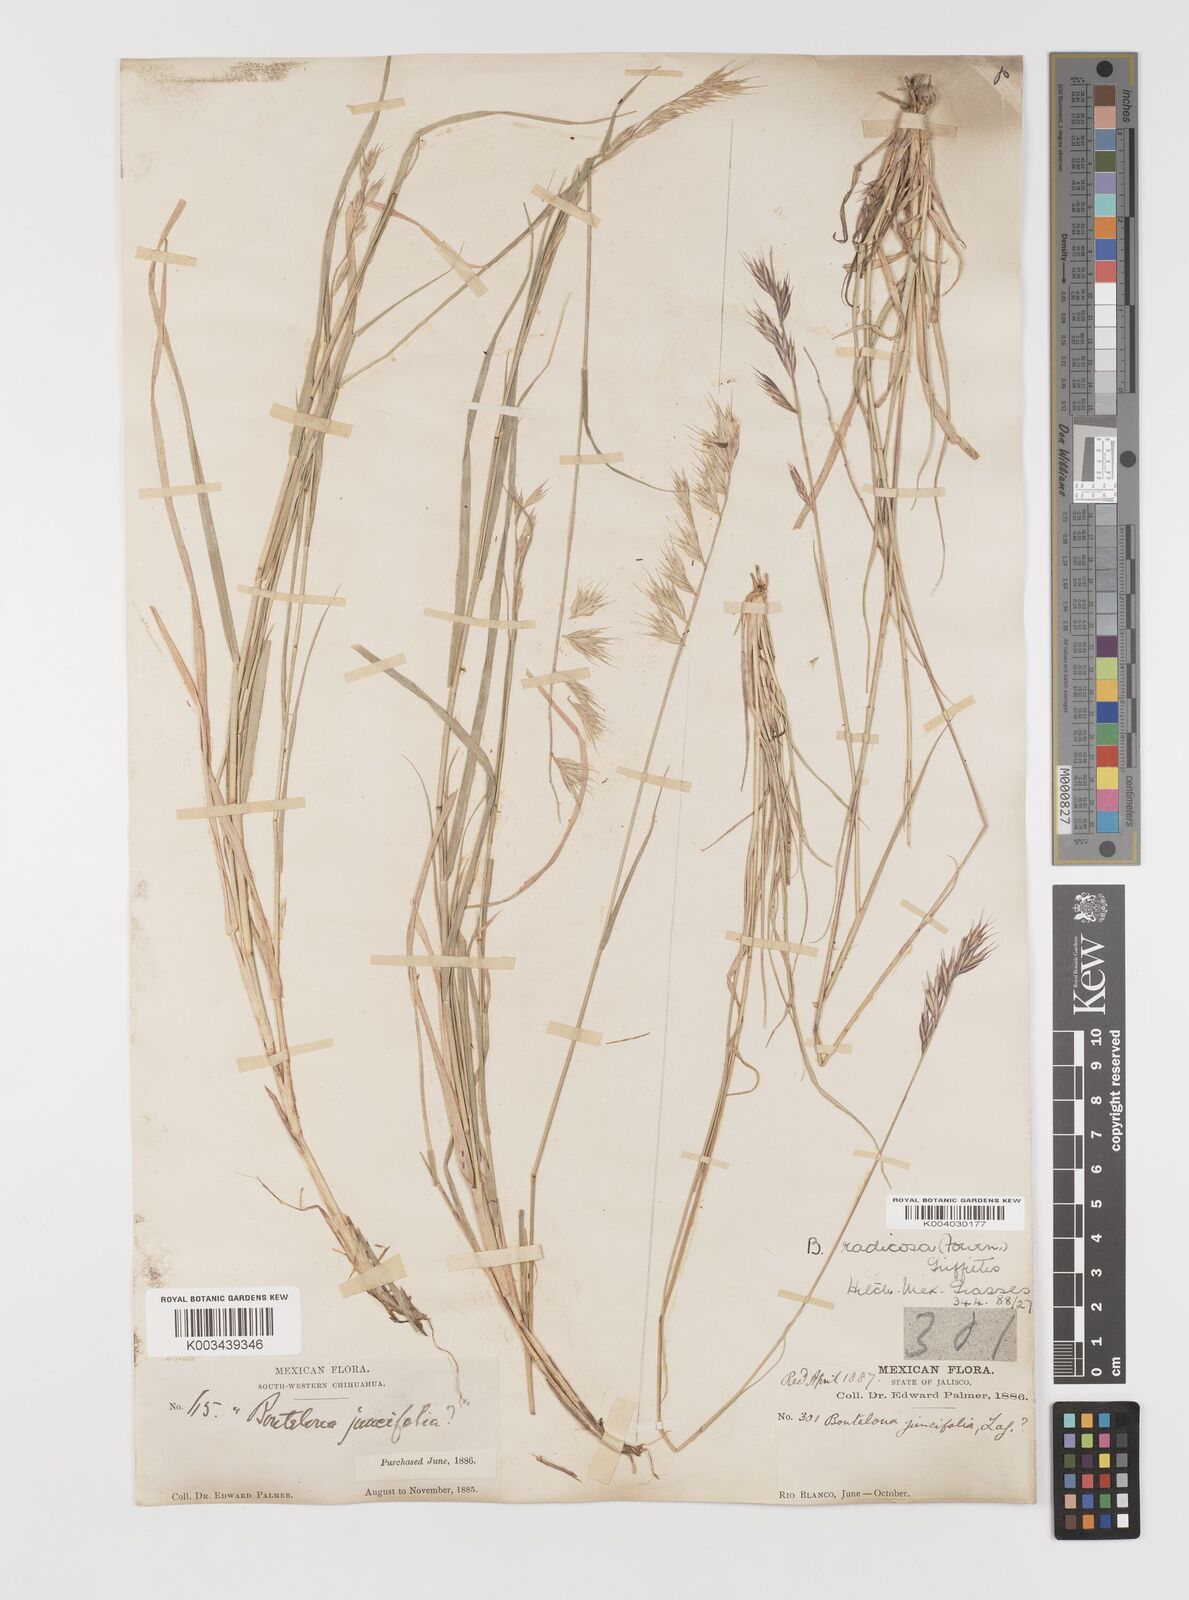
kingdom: Plantae
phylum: Tracheophyta
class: Liliopsida
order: Poales
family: Poaceae
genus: Bouteloua
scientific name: Bouteloua radicosa
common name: Purple grama
